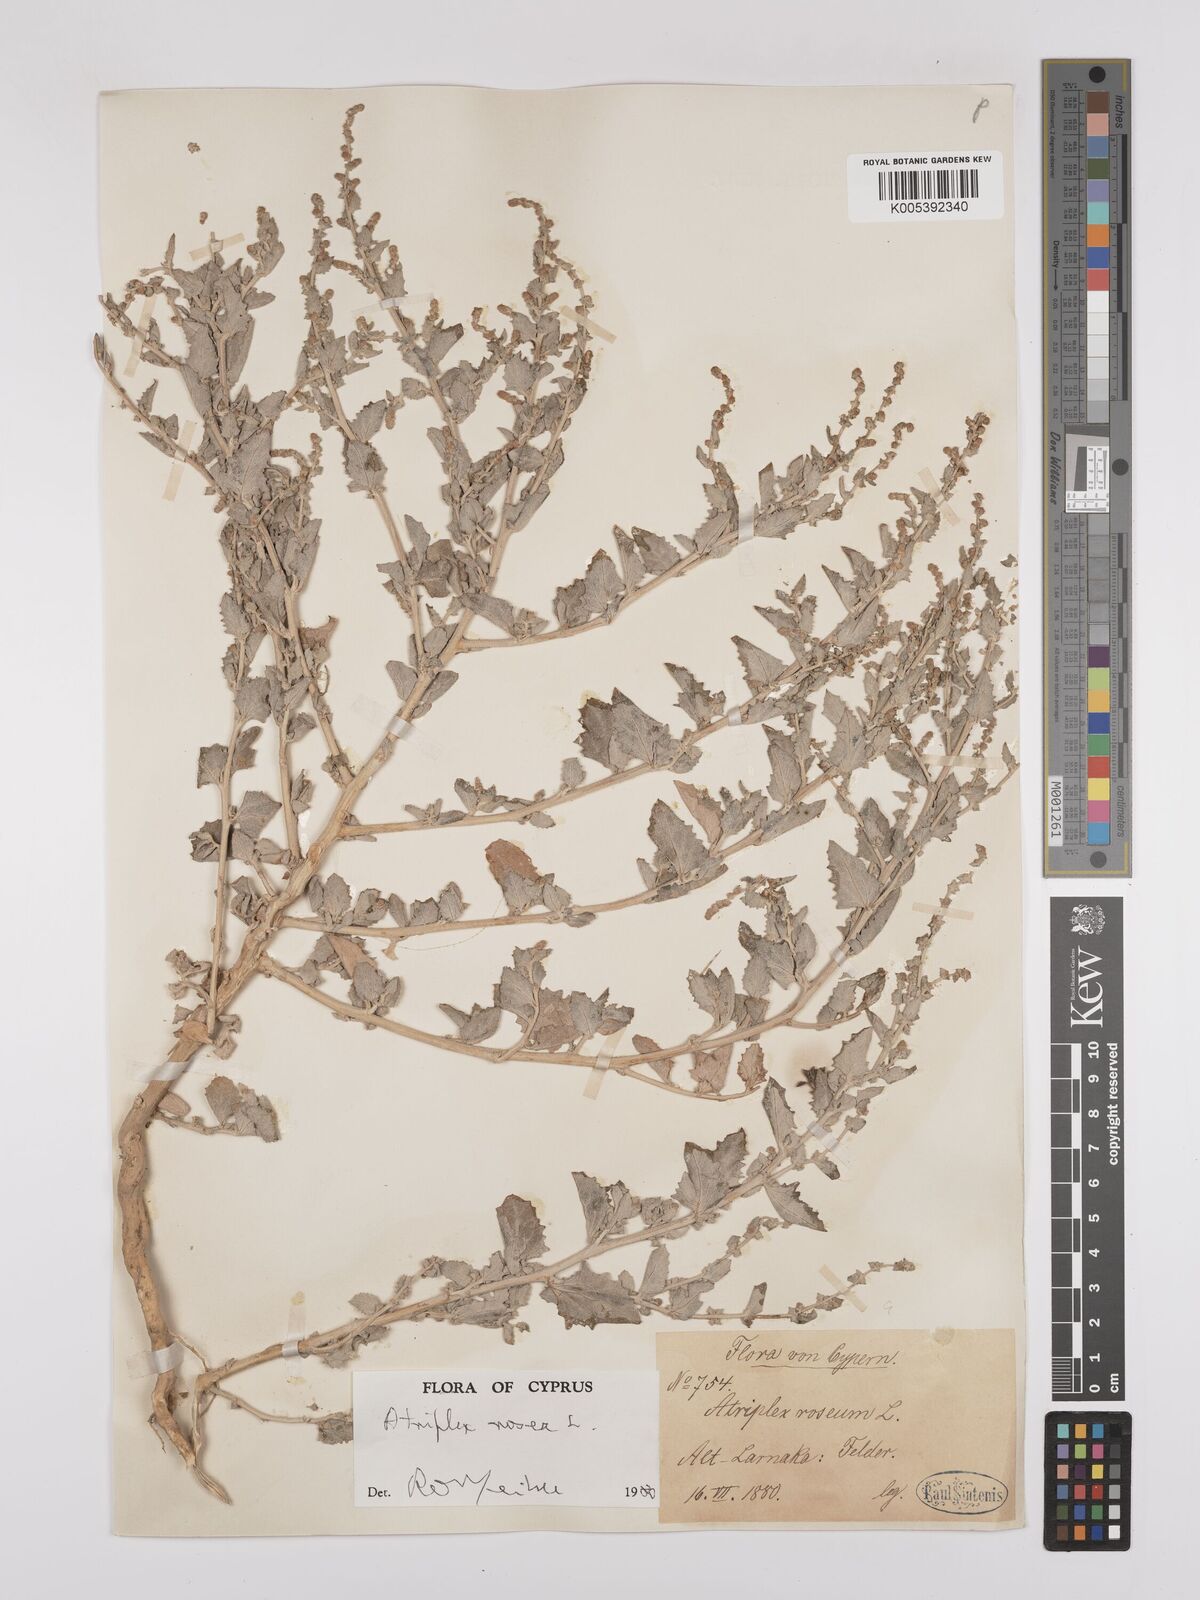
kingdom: Plantae
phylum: Tracheophyta
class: Magnoliopsida
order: Caryophyllales
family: Amaranthaceae
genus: Atriplex
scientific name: Atriplex
